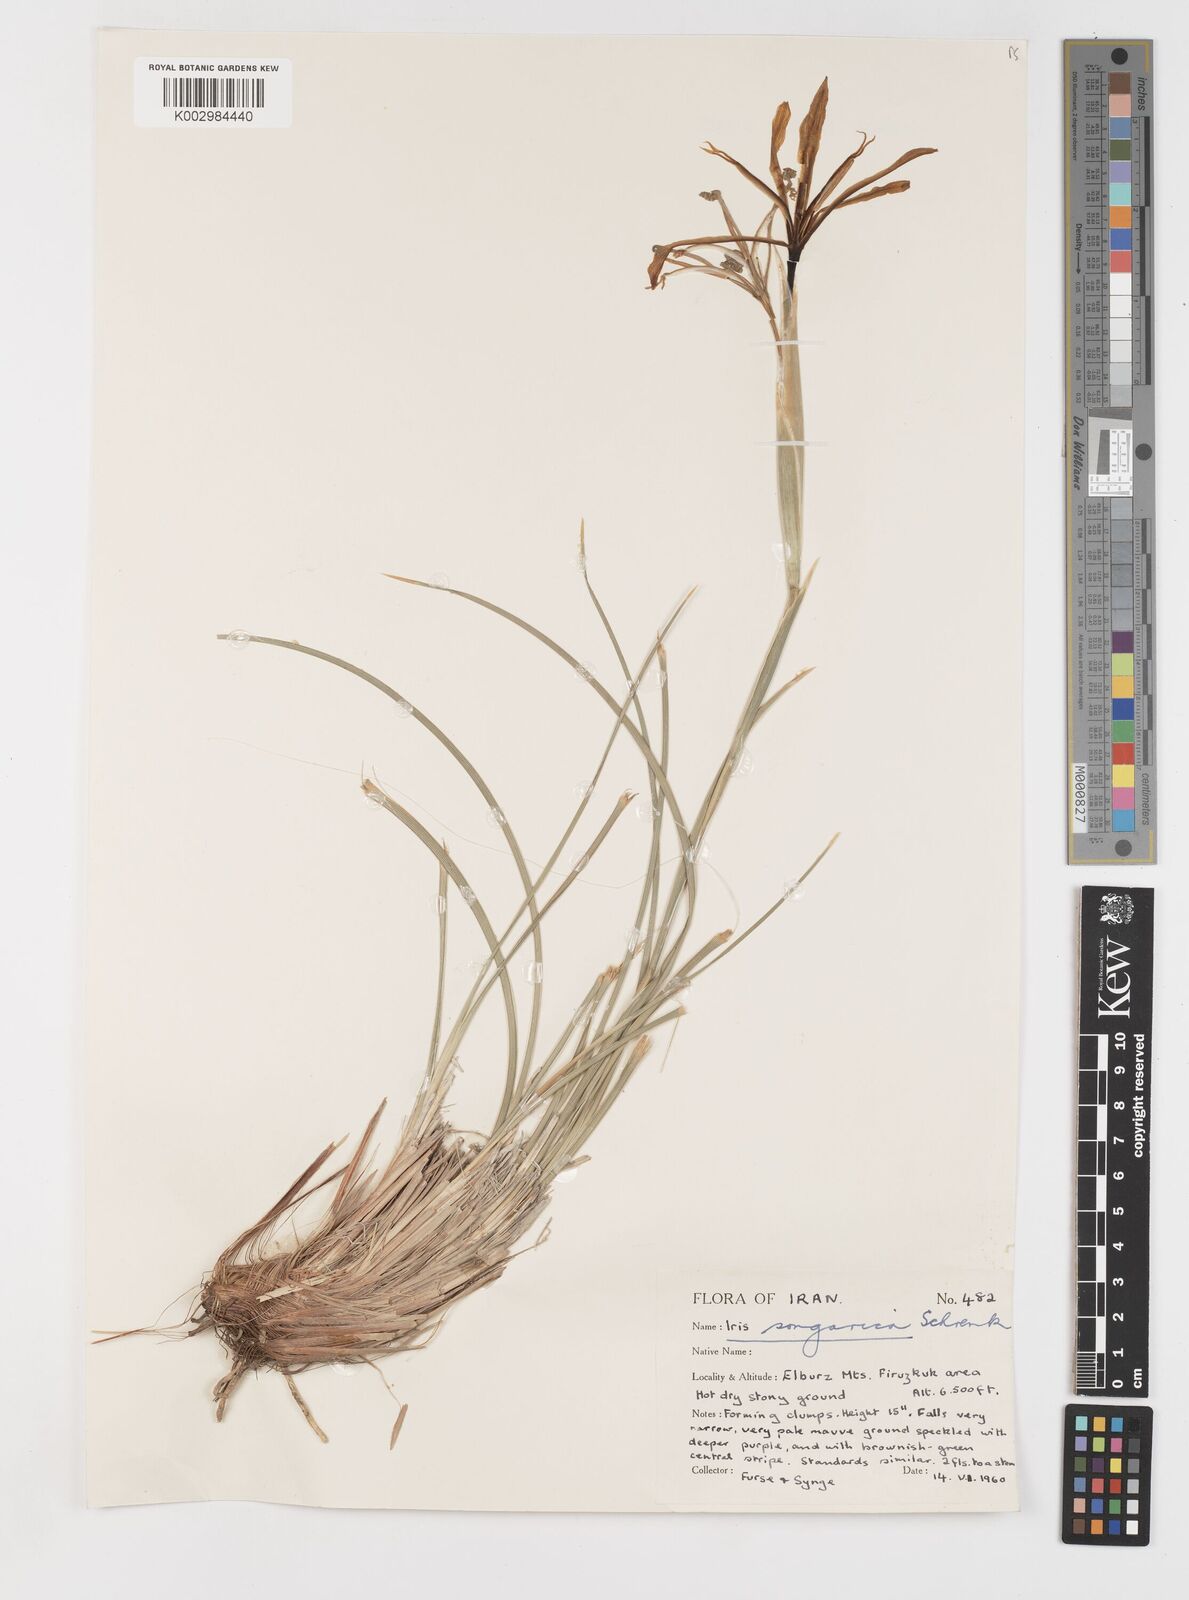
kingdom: Plantae
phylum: Tracheophyta
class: Liliopsida
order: Asparagales
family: Iridaceae
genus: Iris
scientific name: Iris songarica
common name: Songar iris
